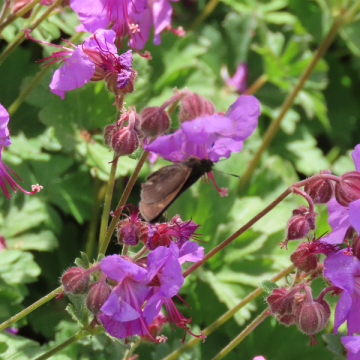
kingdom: Animalia
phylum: Arthropoda
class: Insecta
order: Lepidoptera
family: Hesperiidae
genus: Euphyes
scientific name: Euphyes vestris
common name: Dun Skipper
